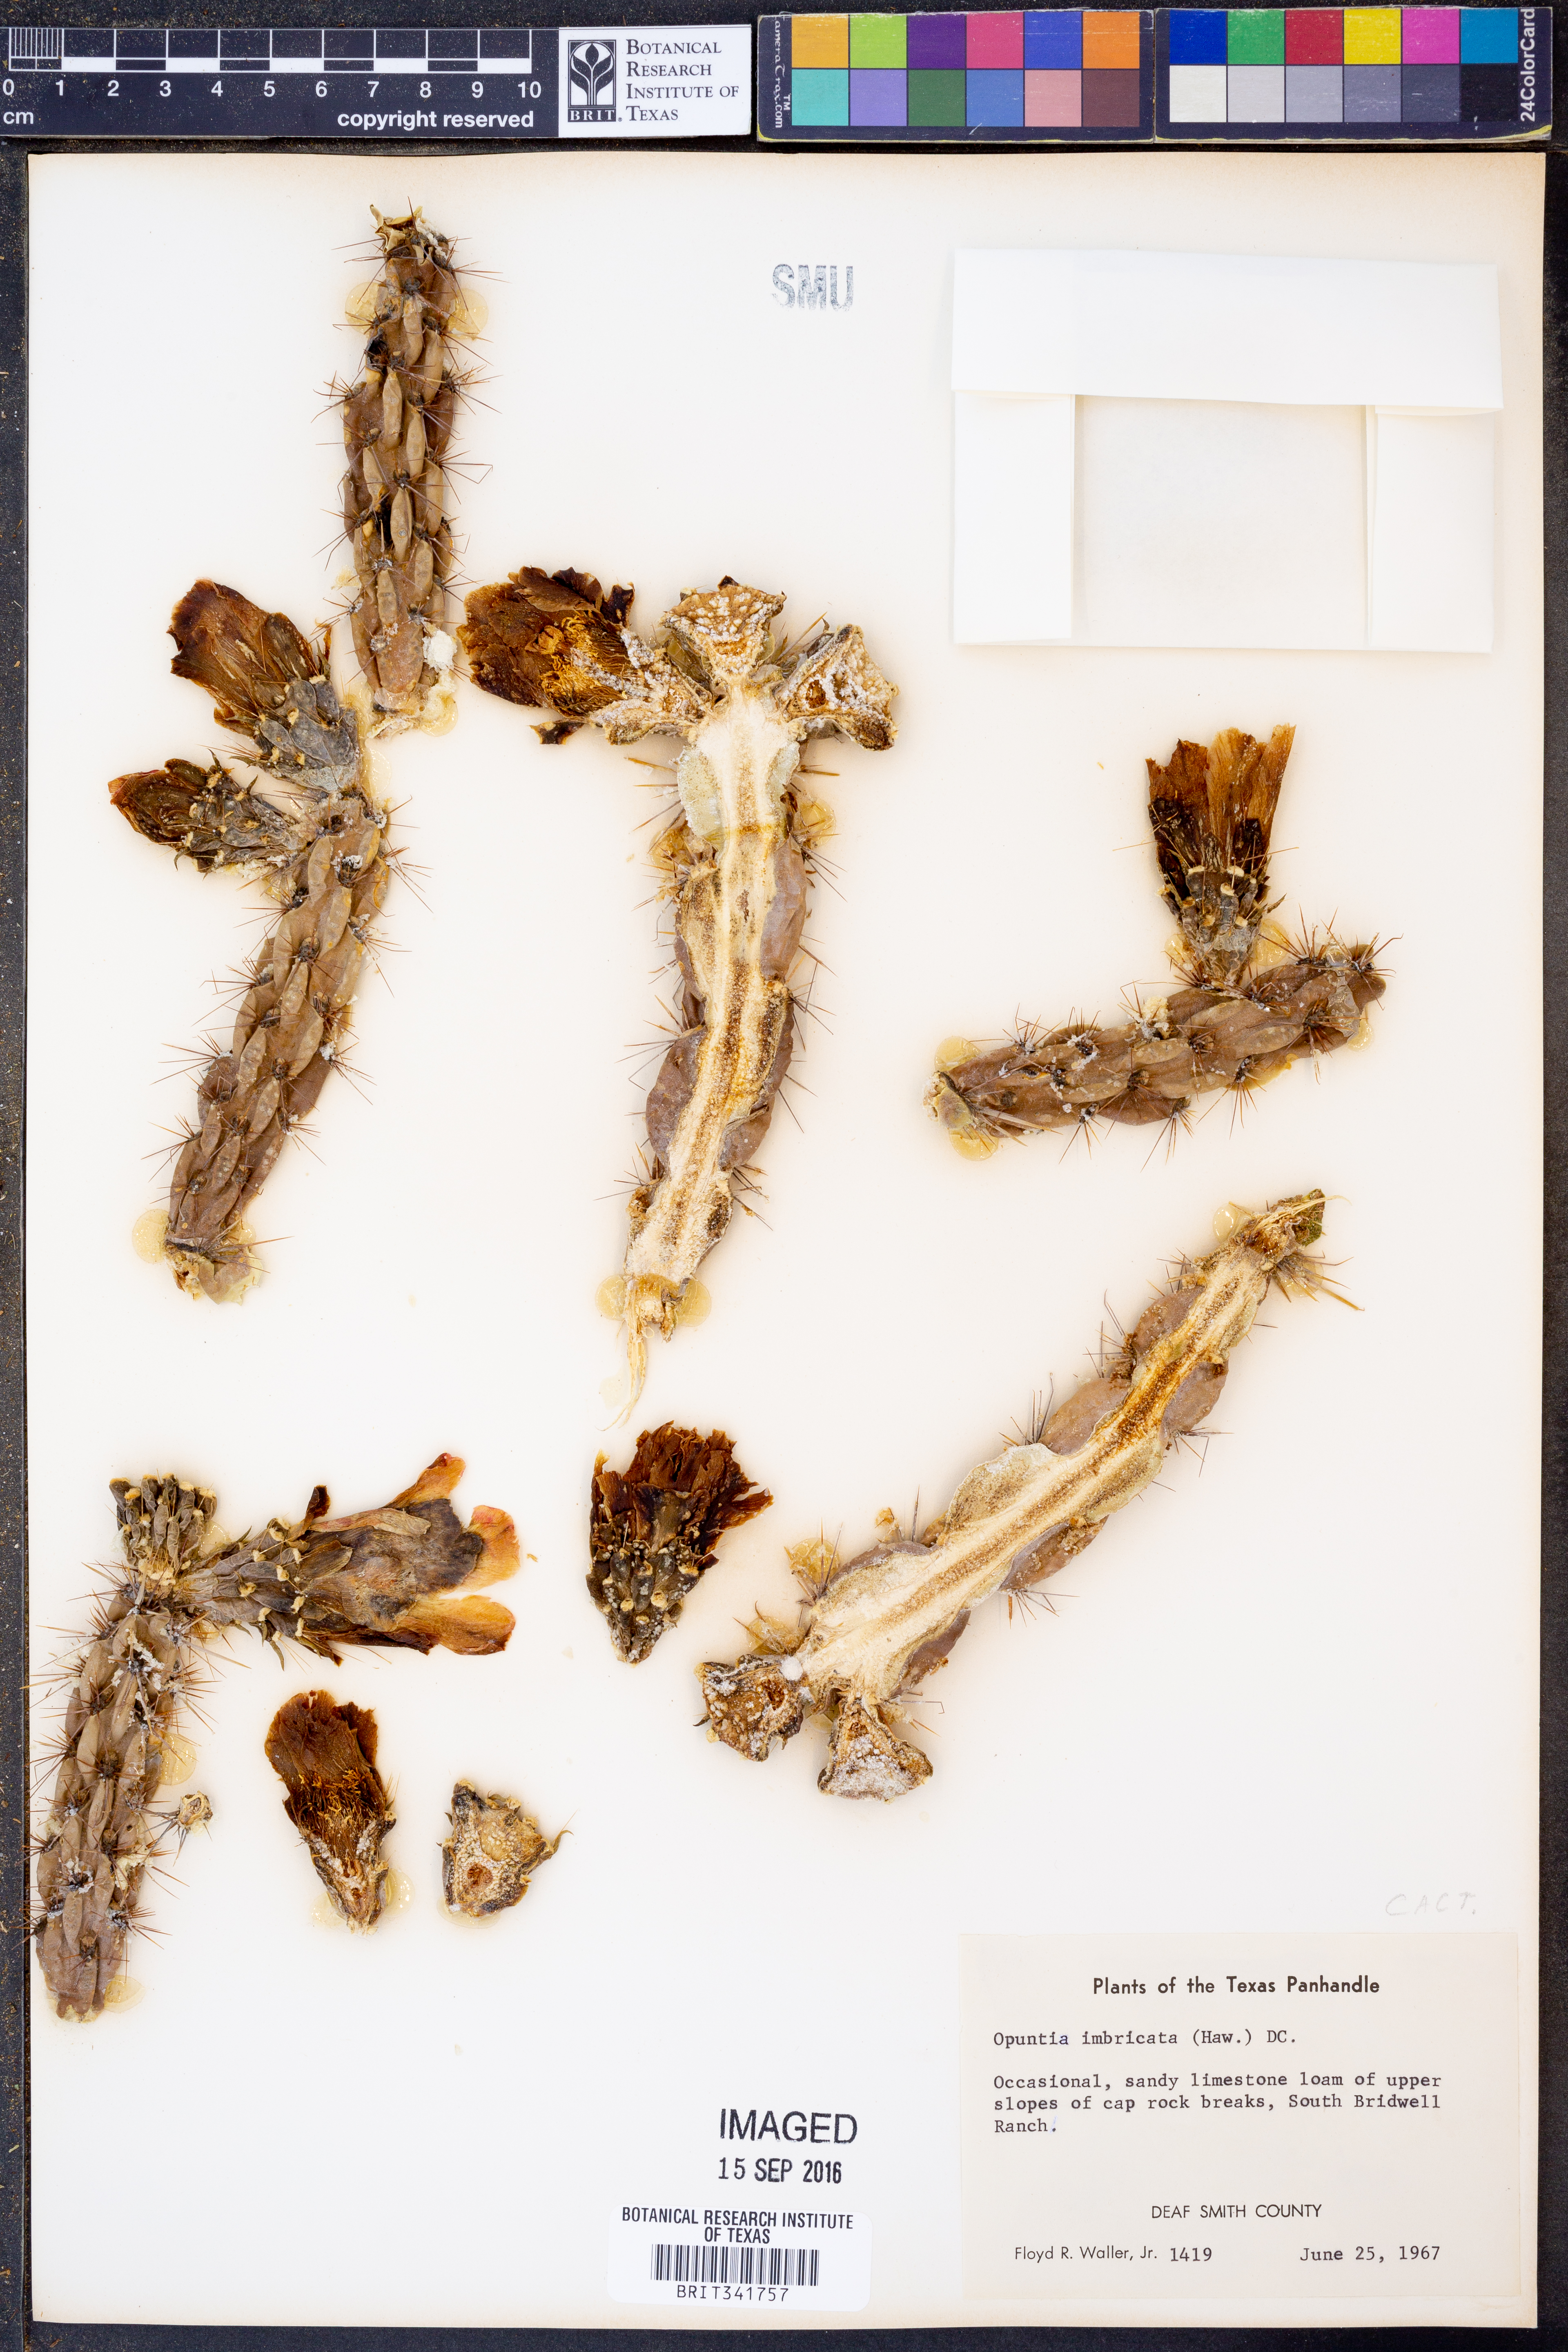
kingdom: Plantae
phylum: Tracheophyta
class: Magnoliopsida
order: Caryophyllales
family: Cactaceae
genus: Cylindropuntia
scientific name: Cylindropuntia imbricata
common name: Candelabrum cactus
